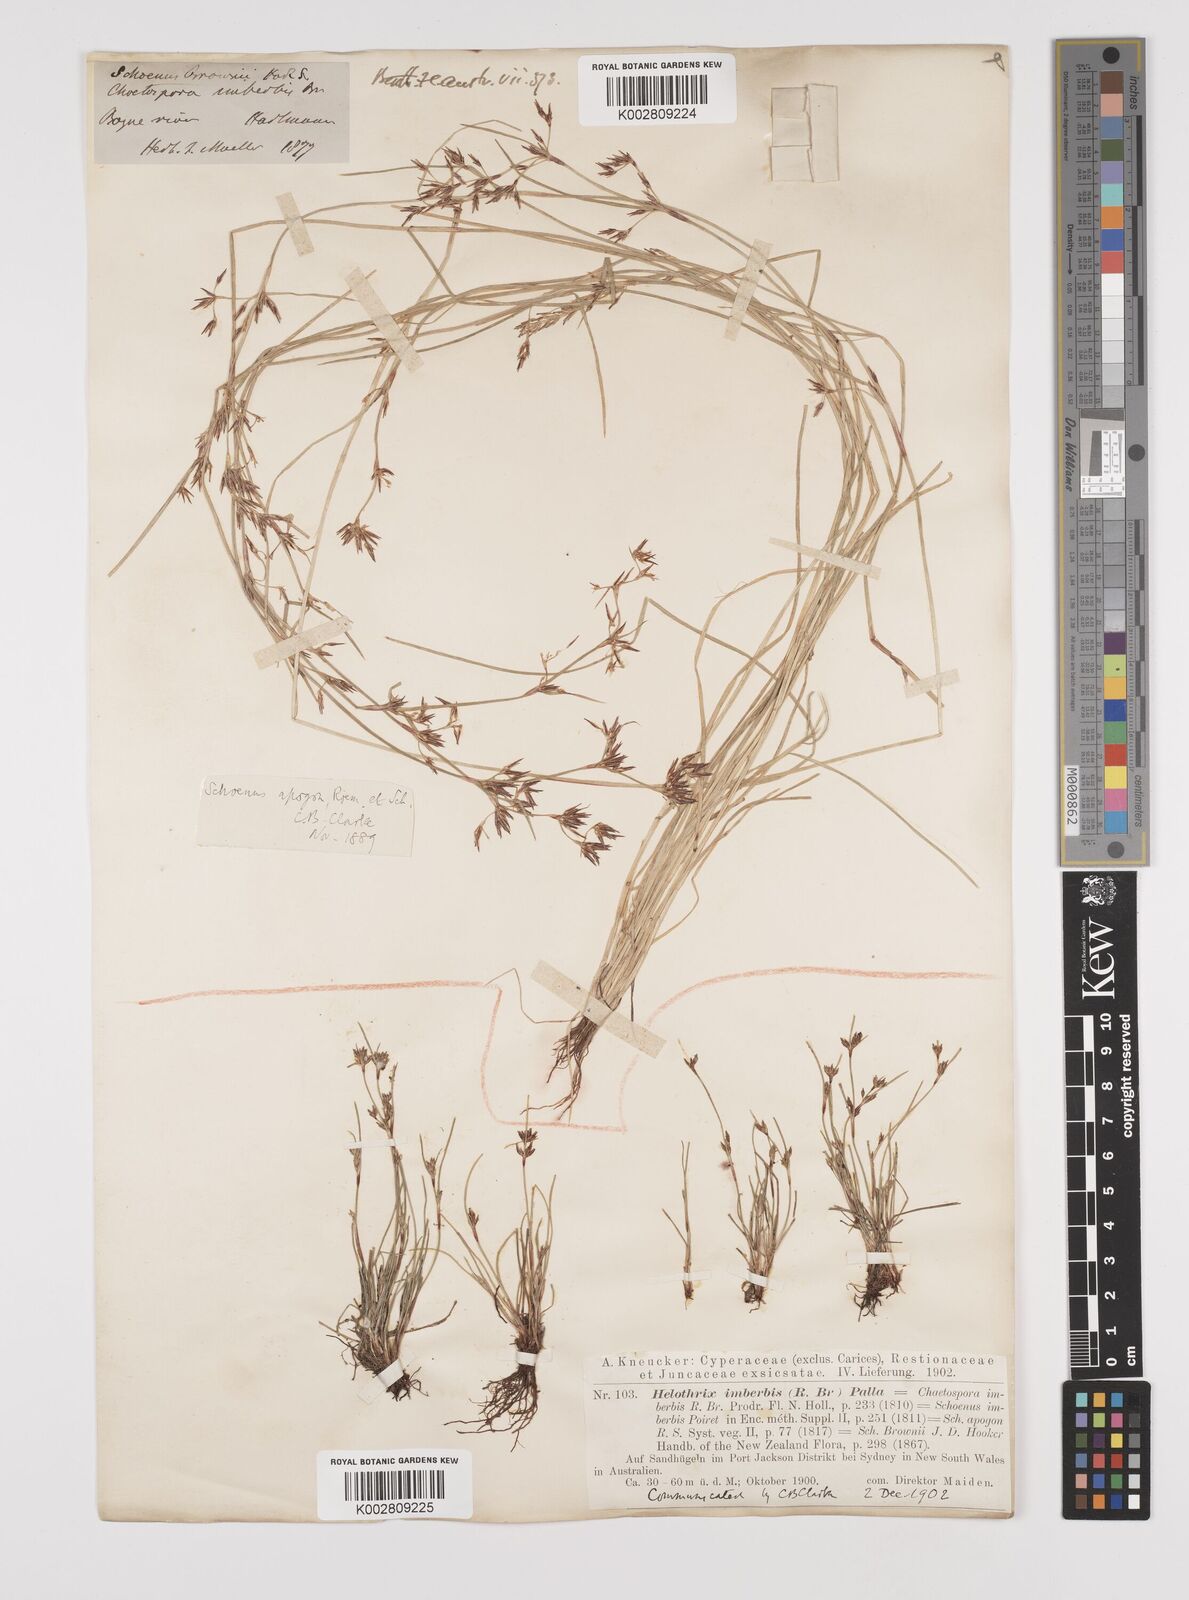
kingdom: Plantae
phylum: Tracheophyta
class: Liliopsida
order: Poales
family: Cyperaceae
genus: Schoenus
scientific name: Schoenus apogon
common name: Smooth bogrush
